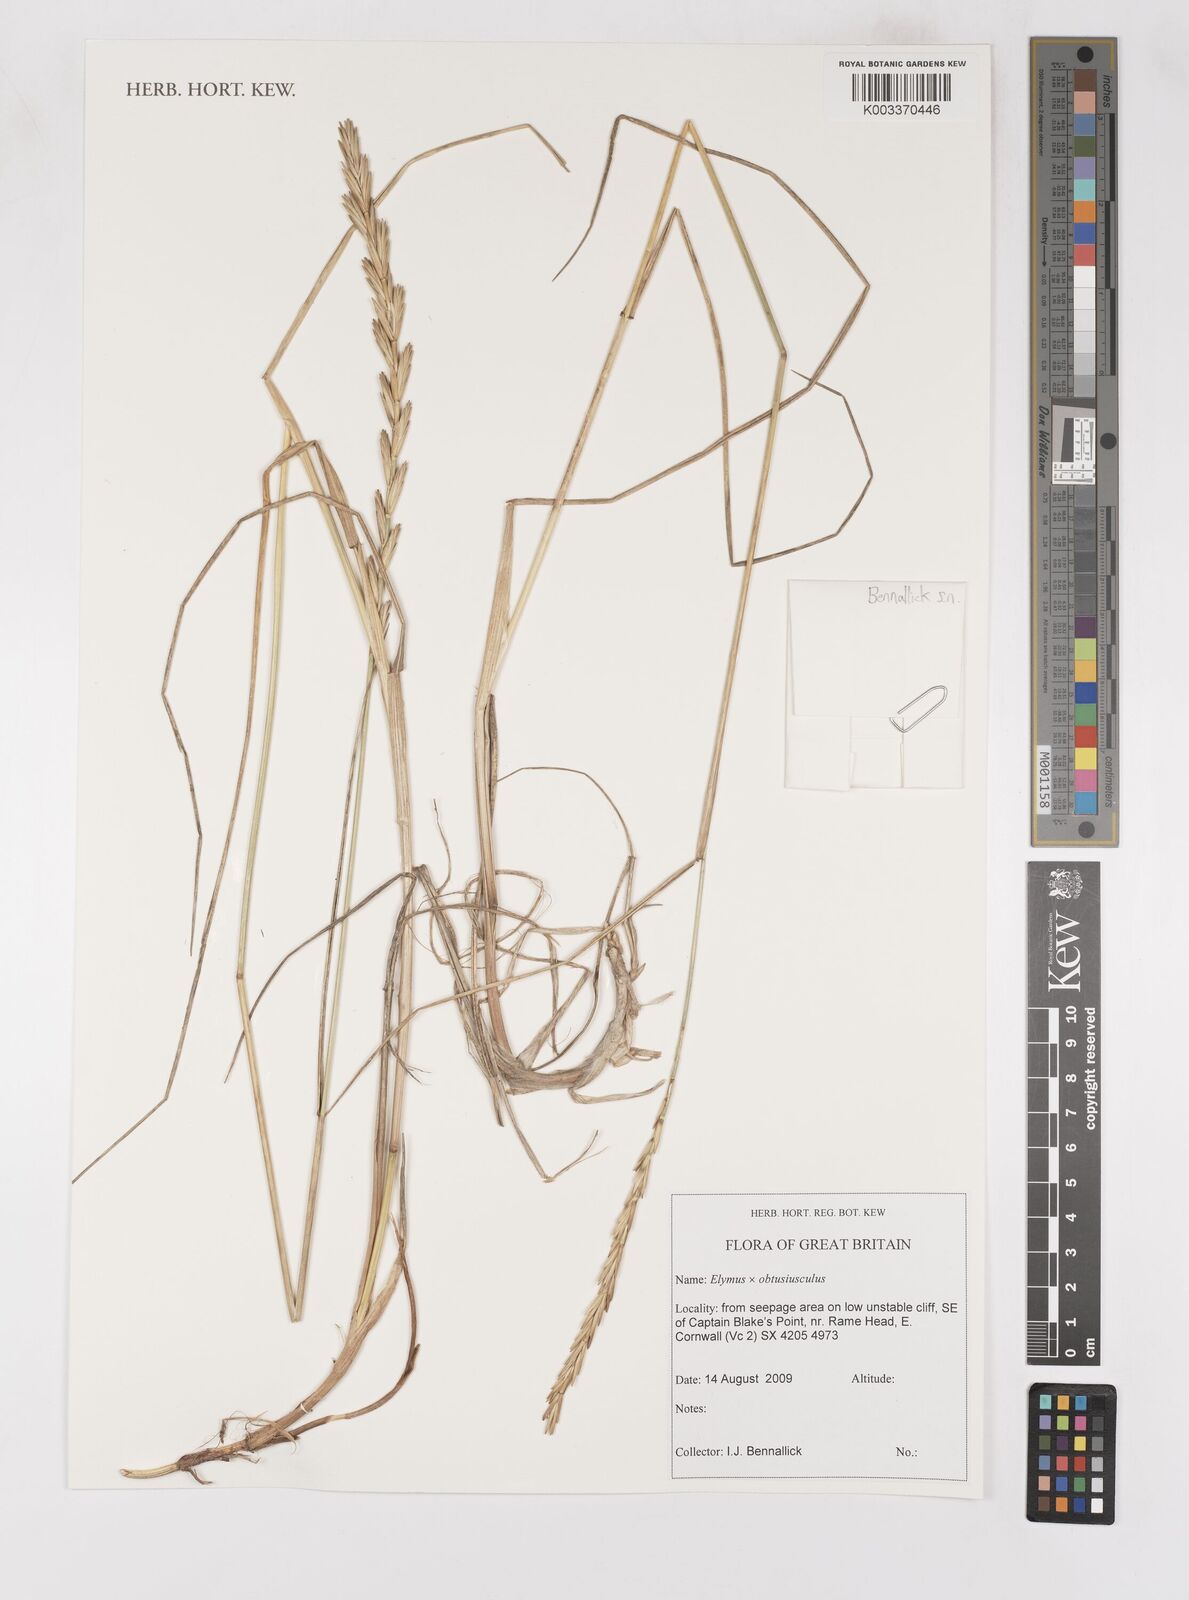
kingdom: Plantae
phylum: Tracheophyta
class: Liliopsida
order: Poales
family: Poaceae
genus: Thinoelymus
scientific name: Thinoelymus obtusiusculus
